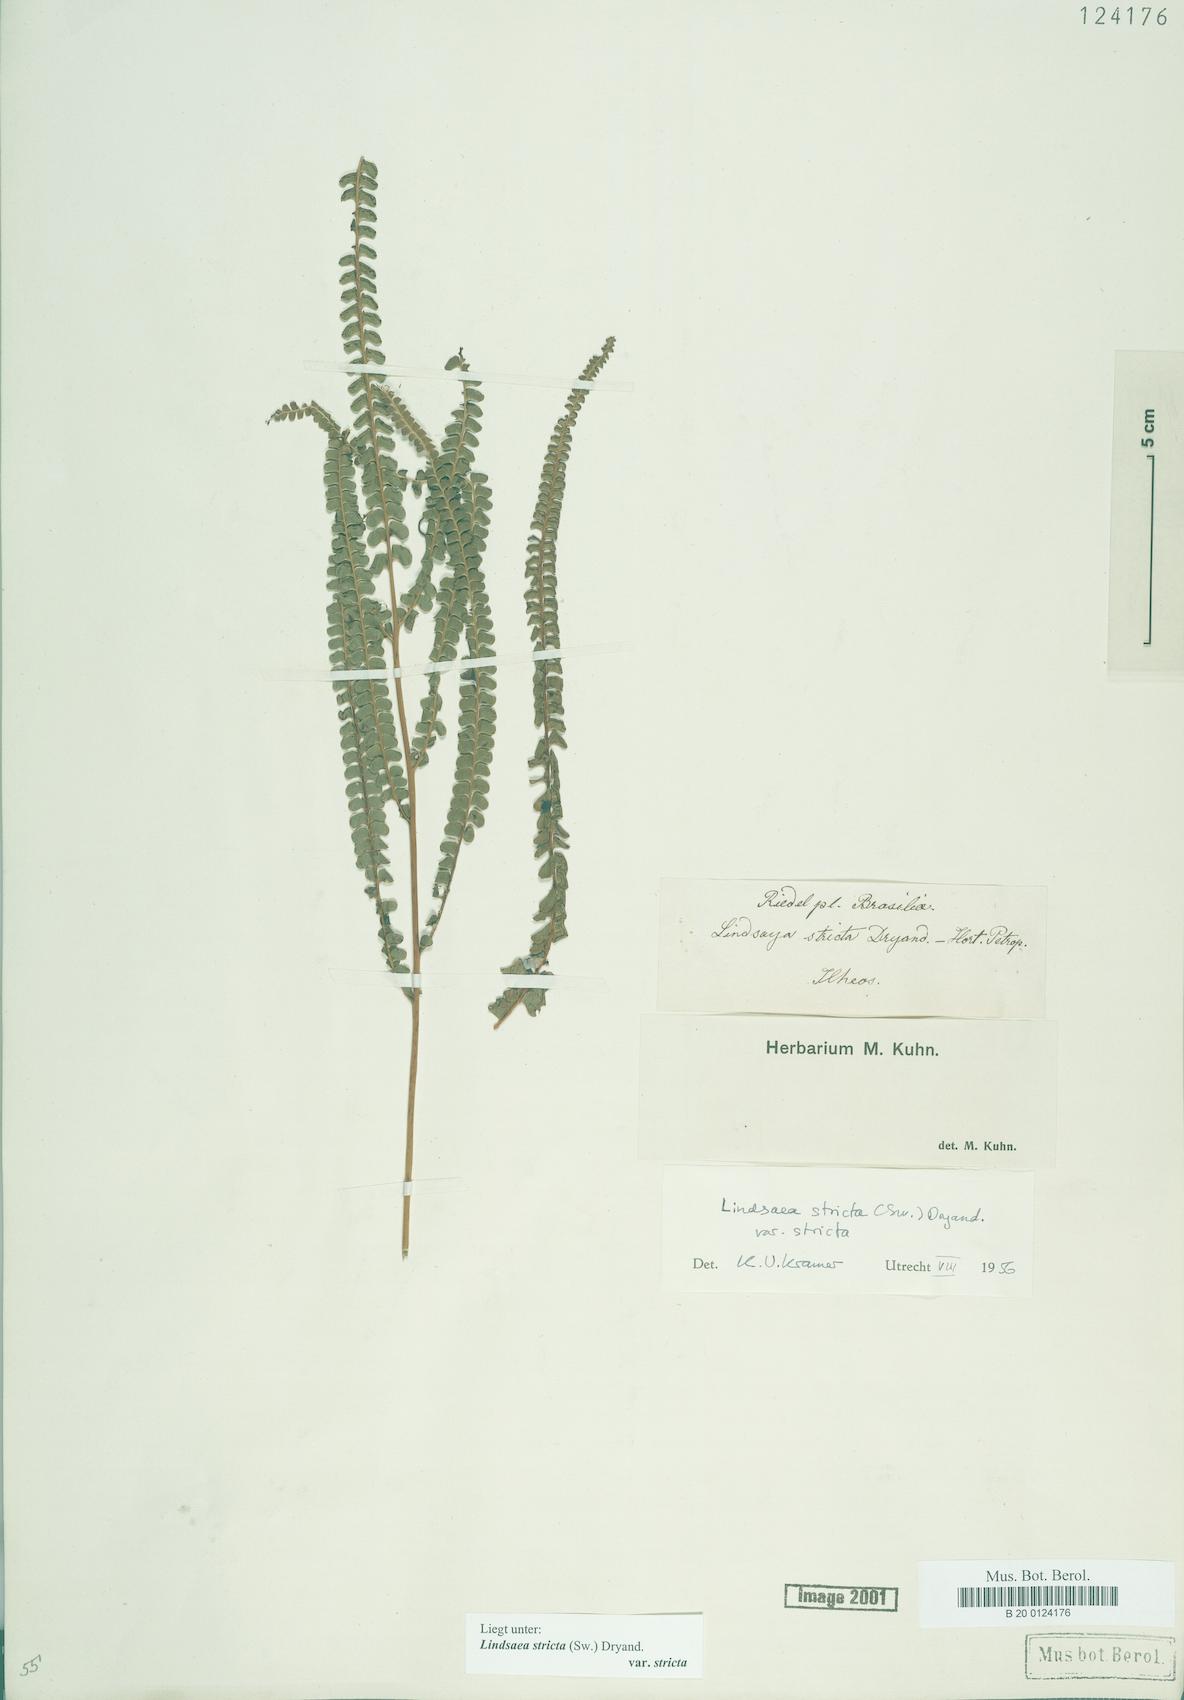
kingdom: Plantae
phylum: Tracheophyta
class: Polypodiopsida
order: Polypodiales
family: Lindsaeaceae
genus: Lindsaea
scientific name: Lindsaea stricta
